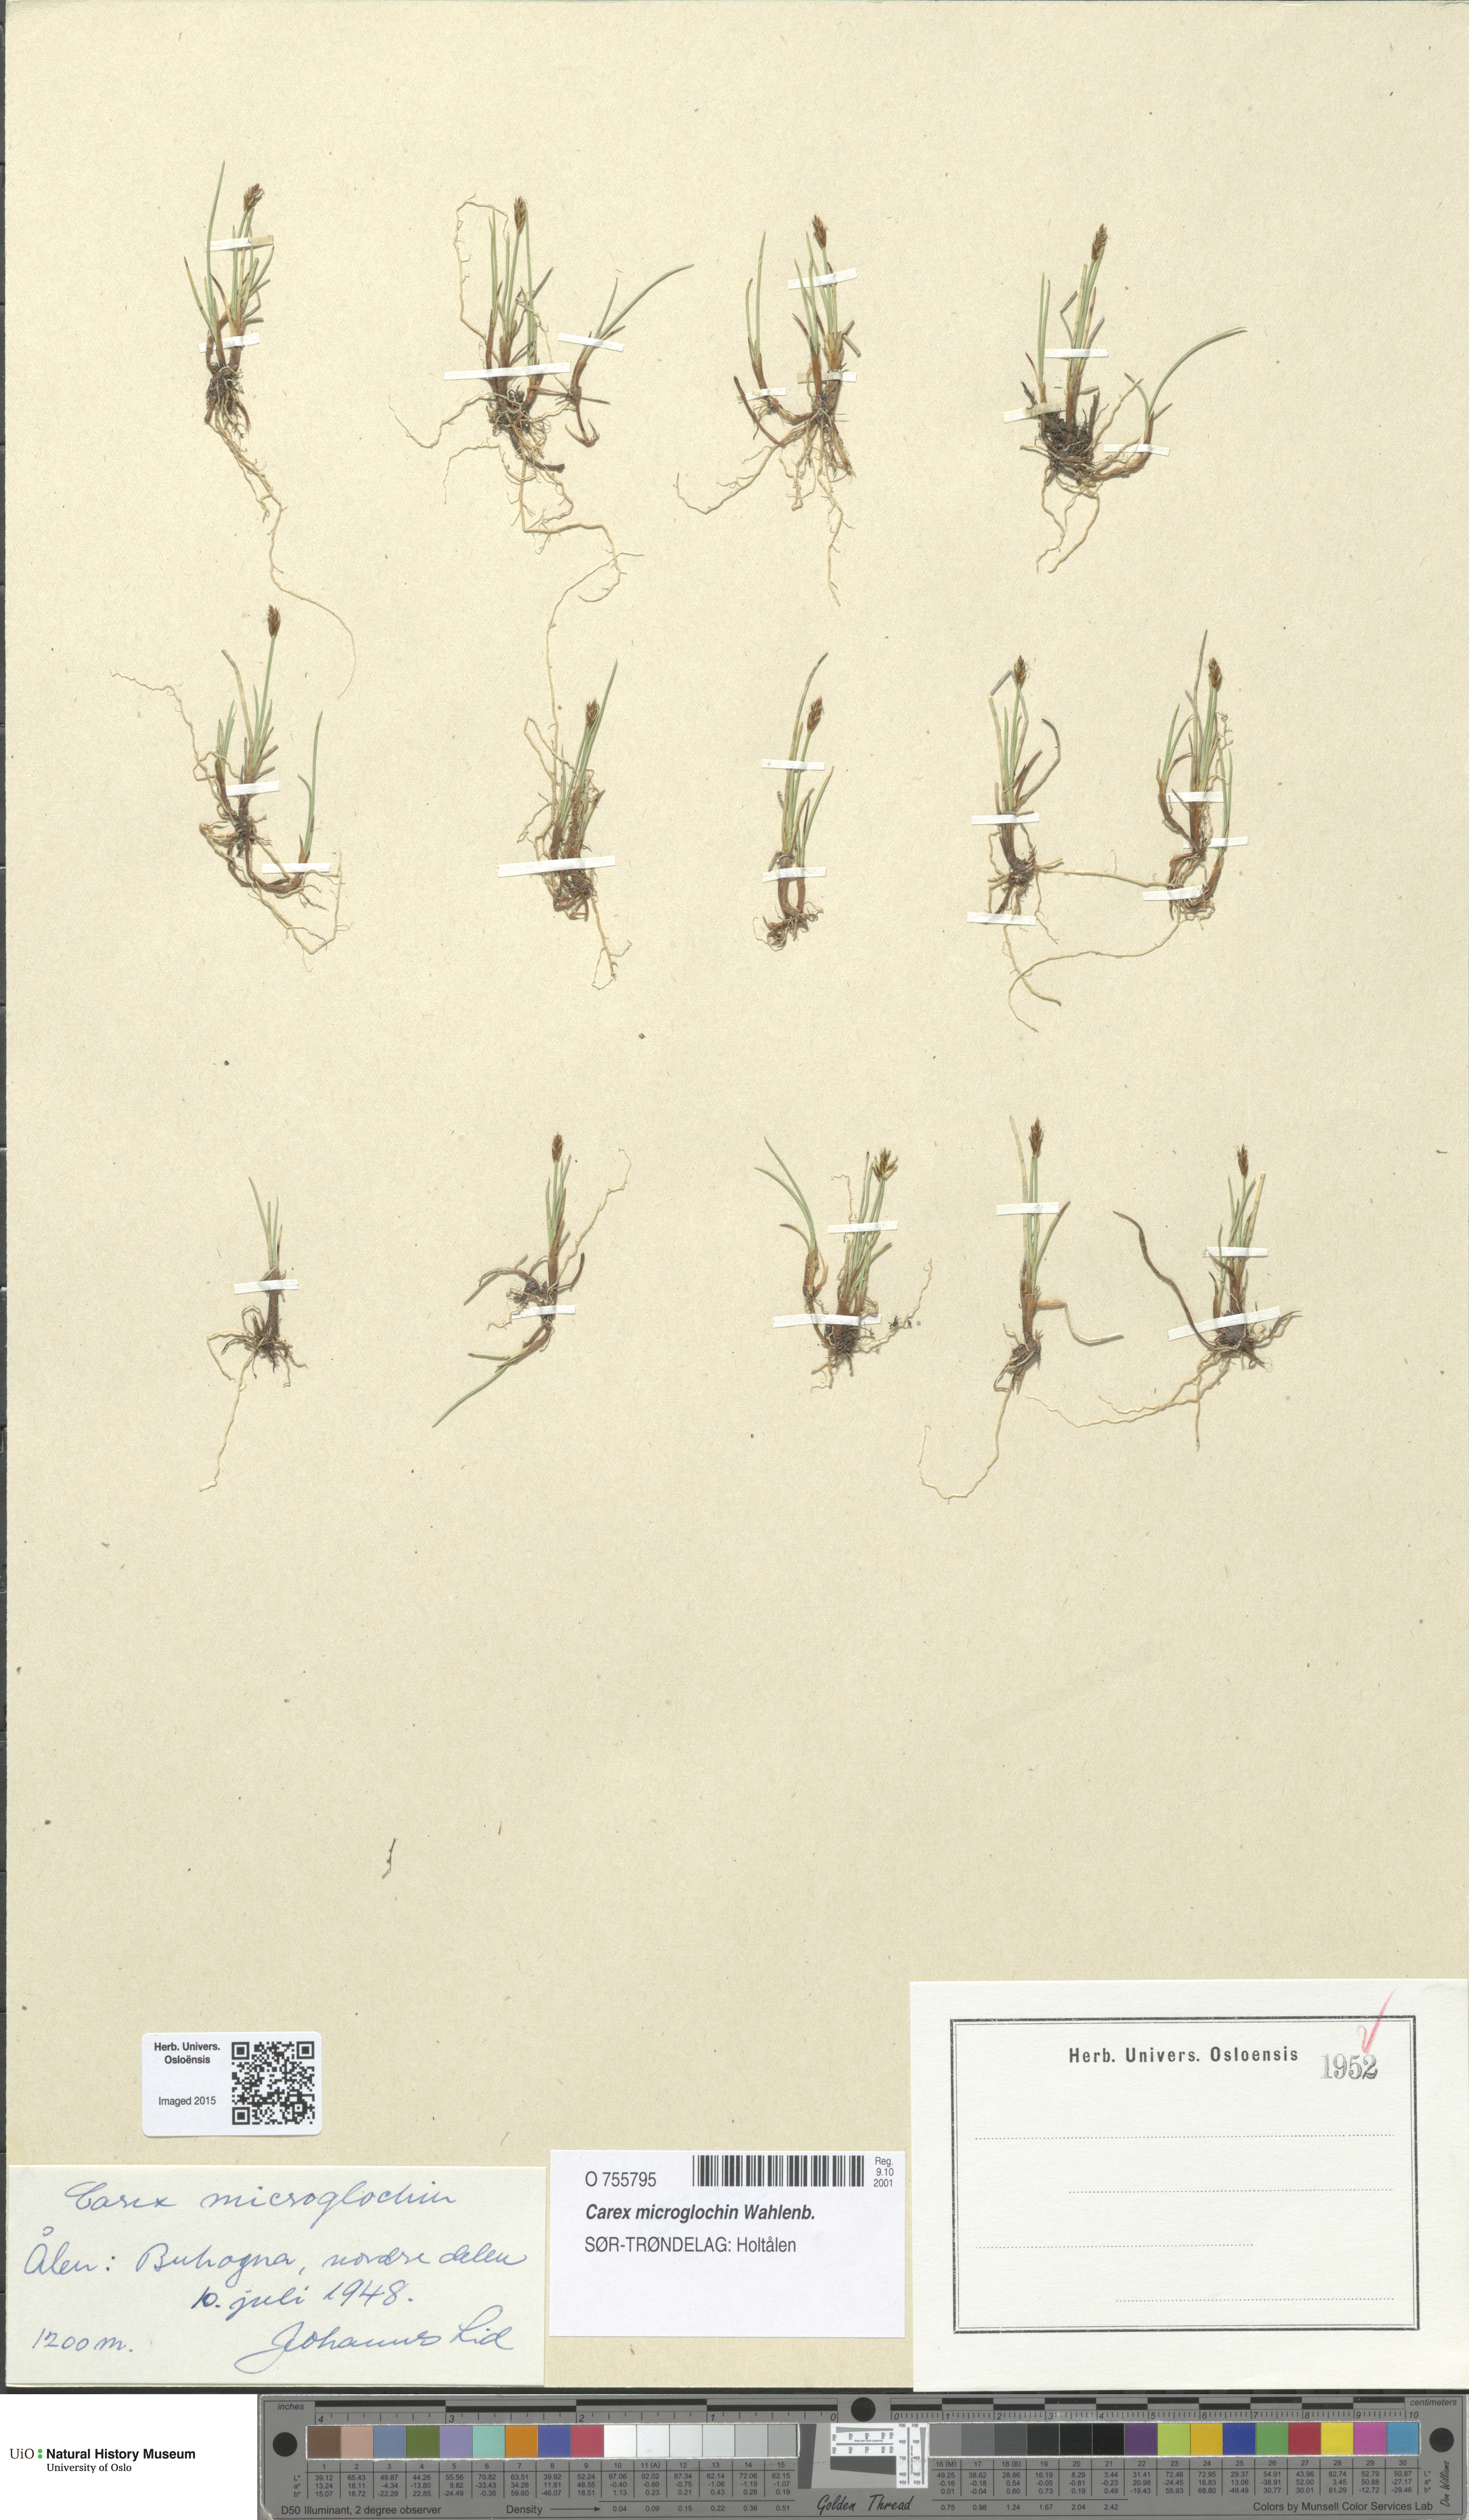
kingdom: Plantae
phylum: Tracheophyta
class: Liliopsida
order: Poales
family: Cyperaceae
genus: Carex
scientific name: Carex microglochin
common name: Bristle sedge
